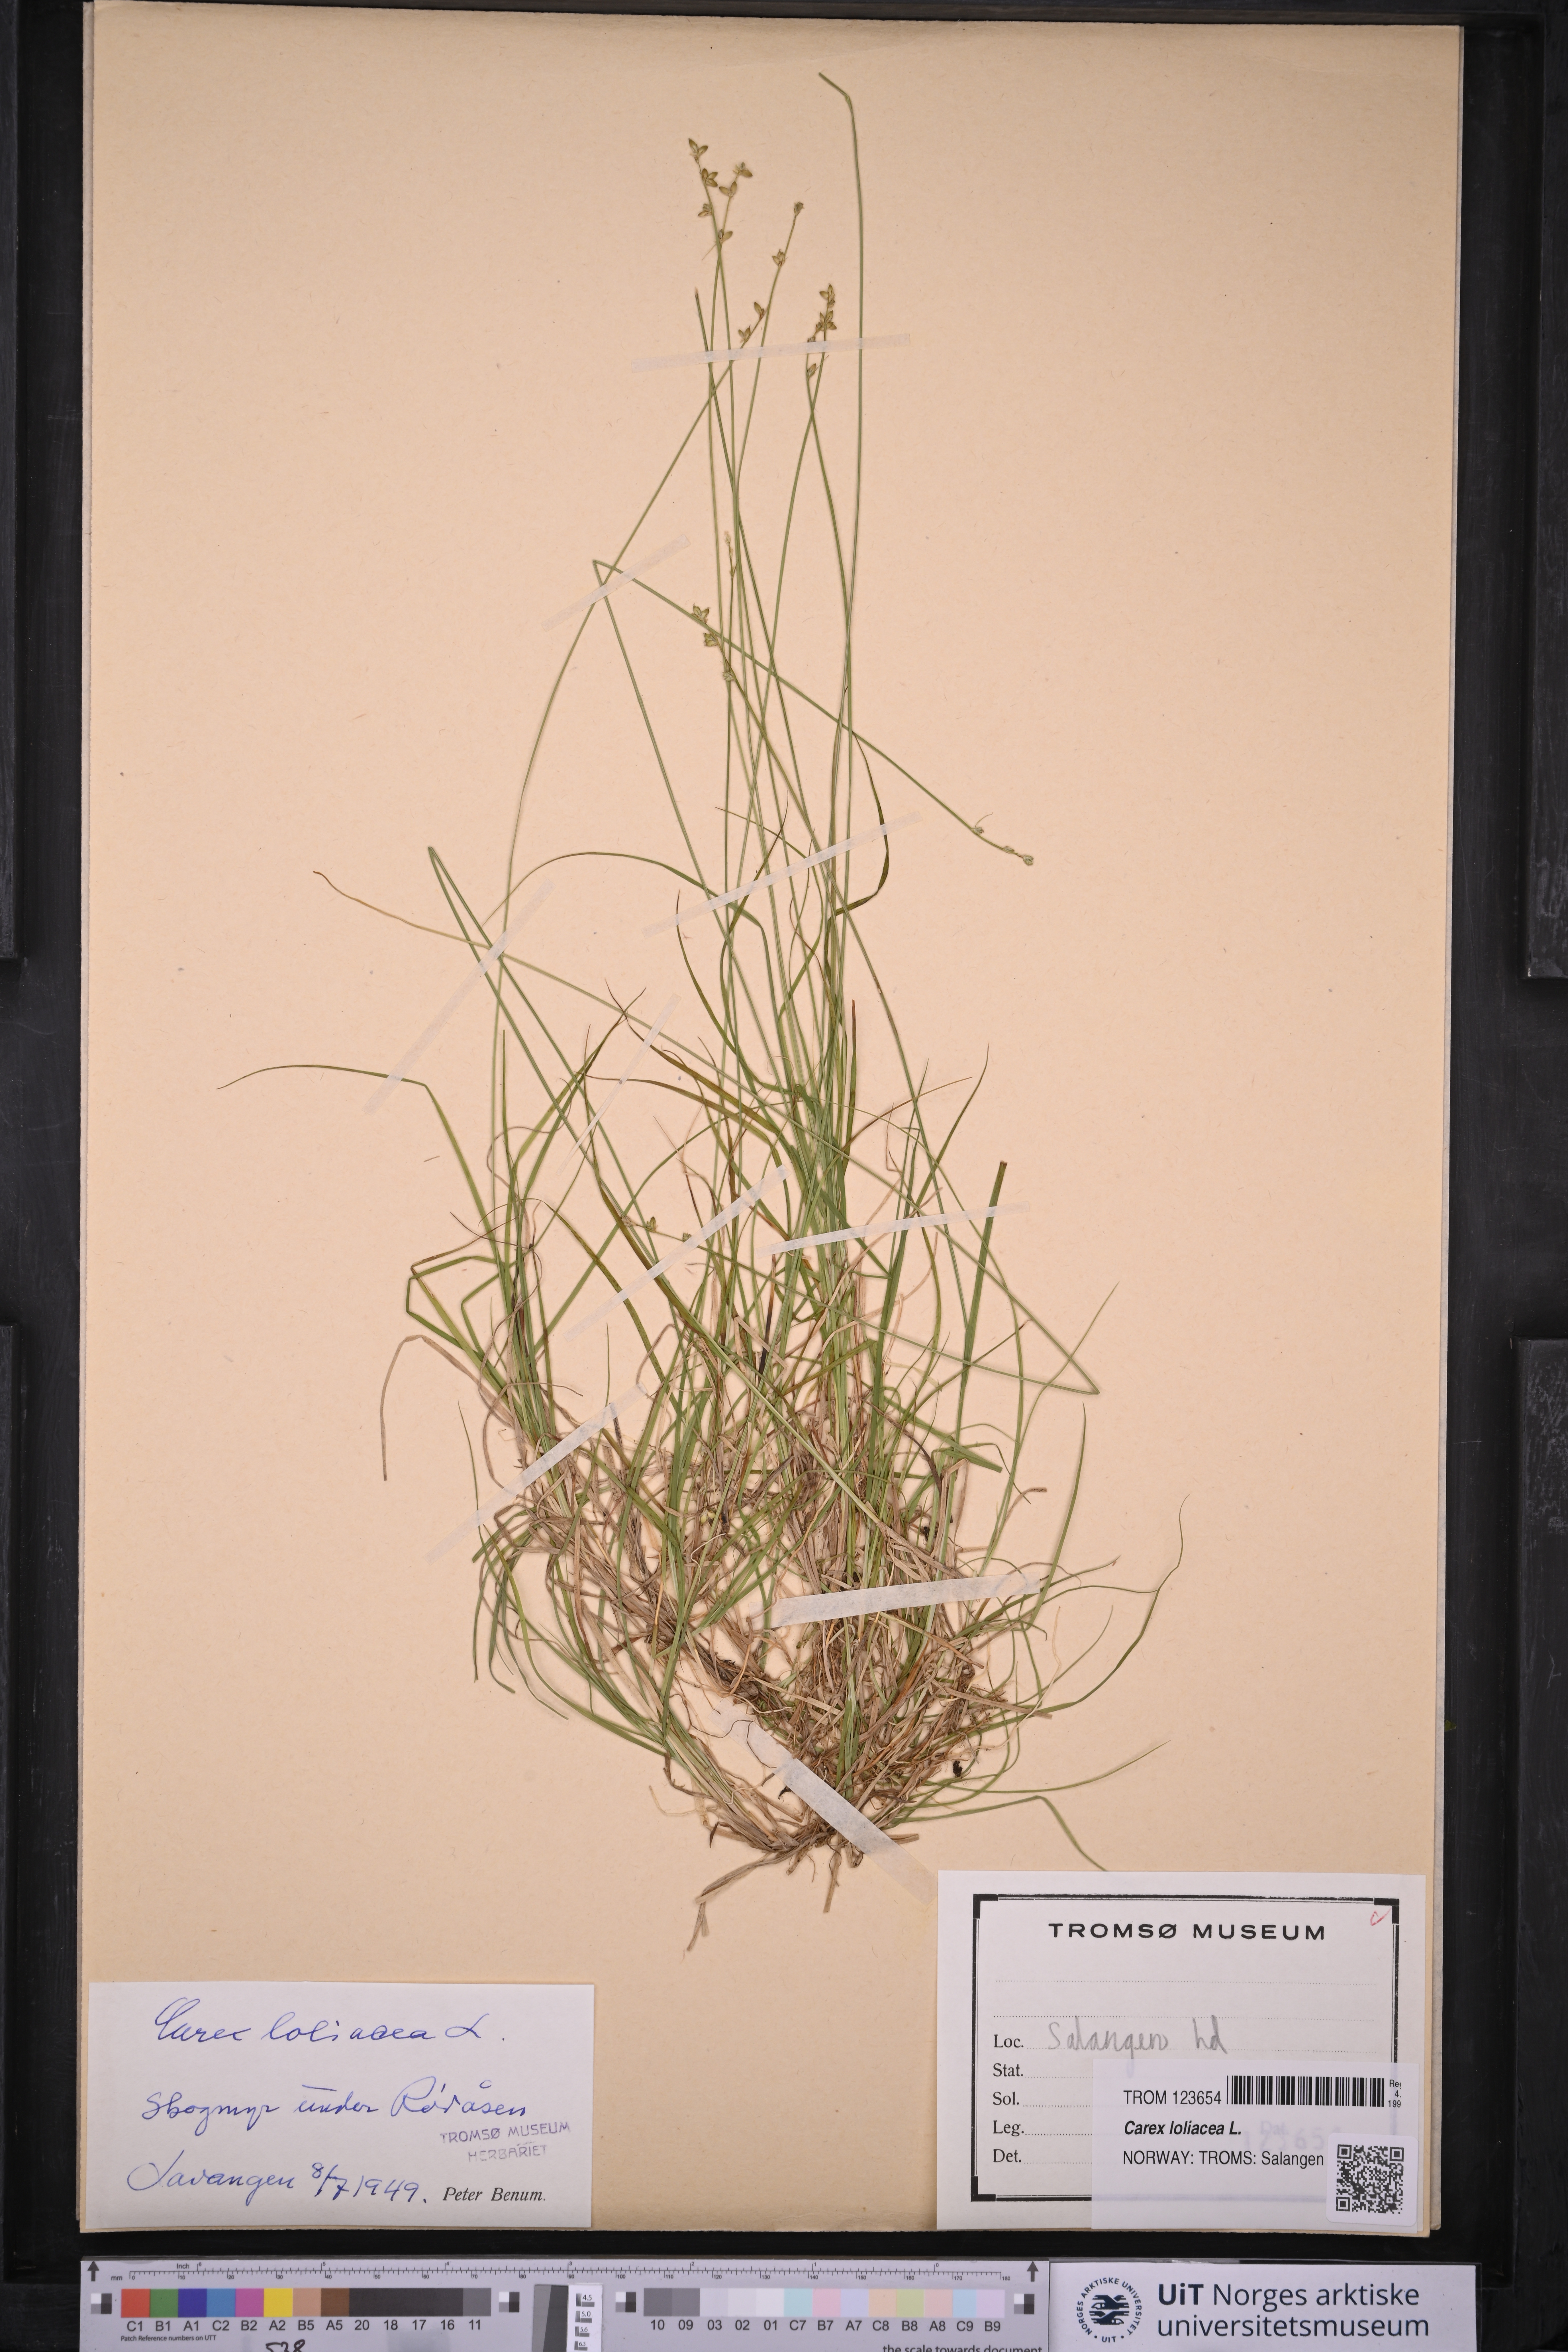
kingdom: Plantae
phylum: Tracheophyta
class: Liliopsida
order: Poales
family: Cyperaceae
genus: Carex
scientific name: Carex loliacea
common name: Ryegrass sedge
